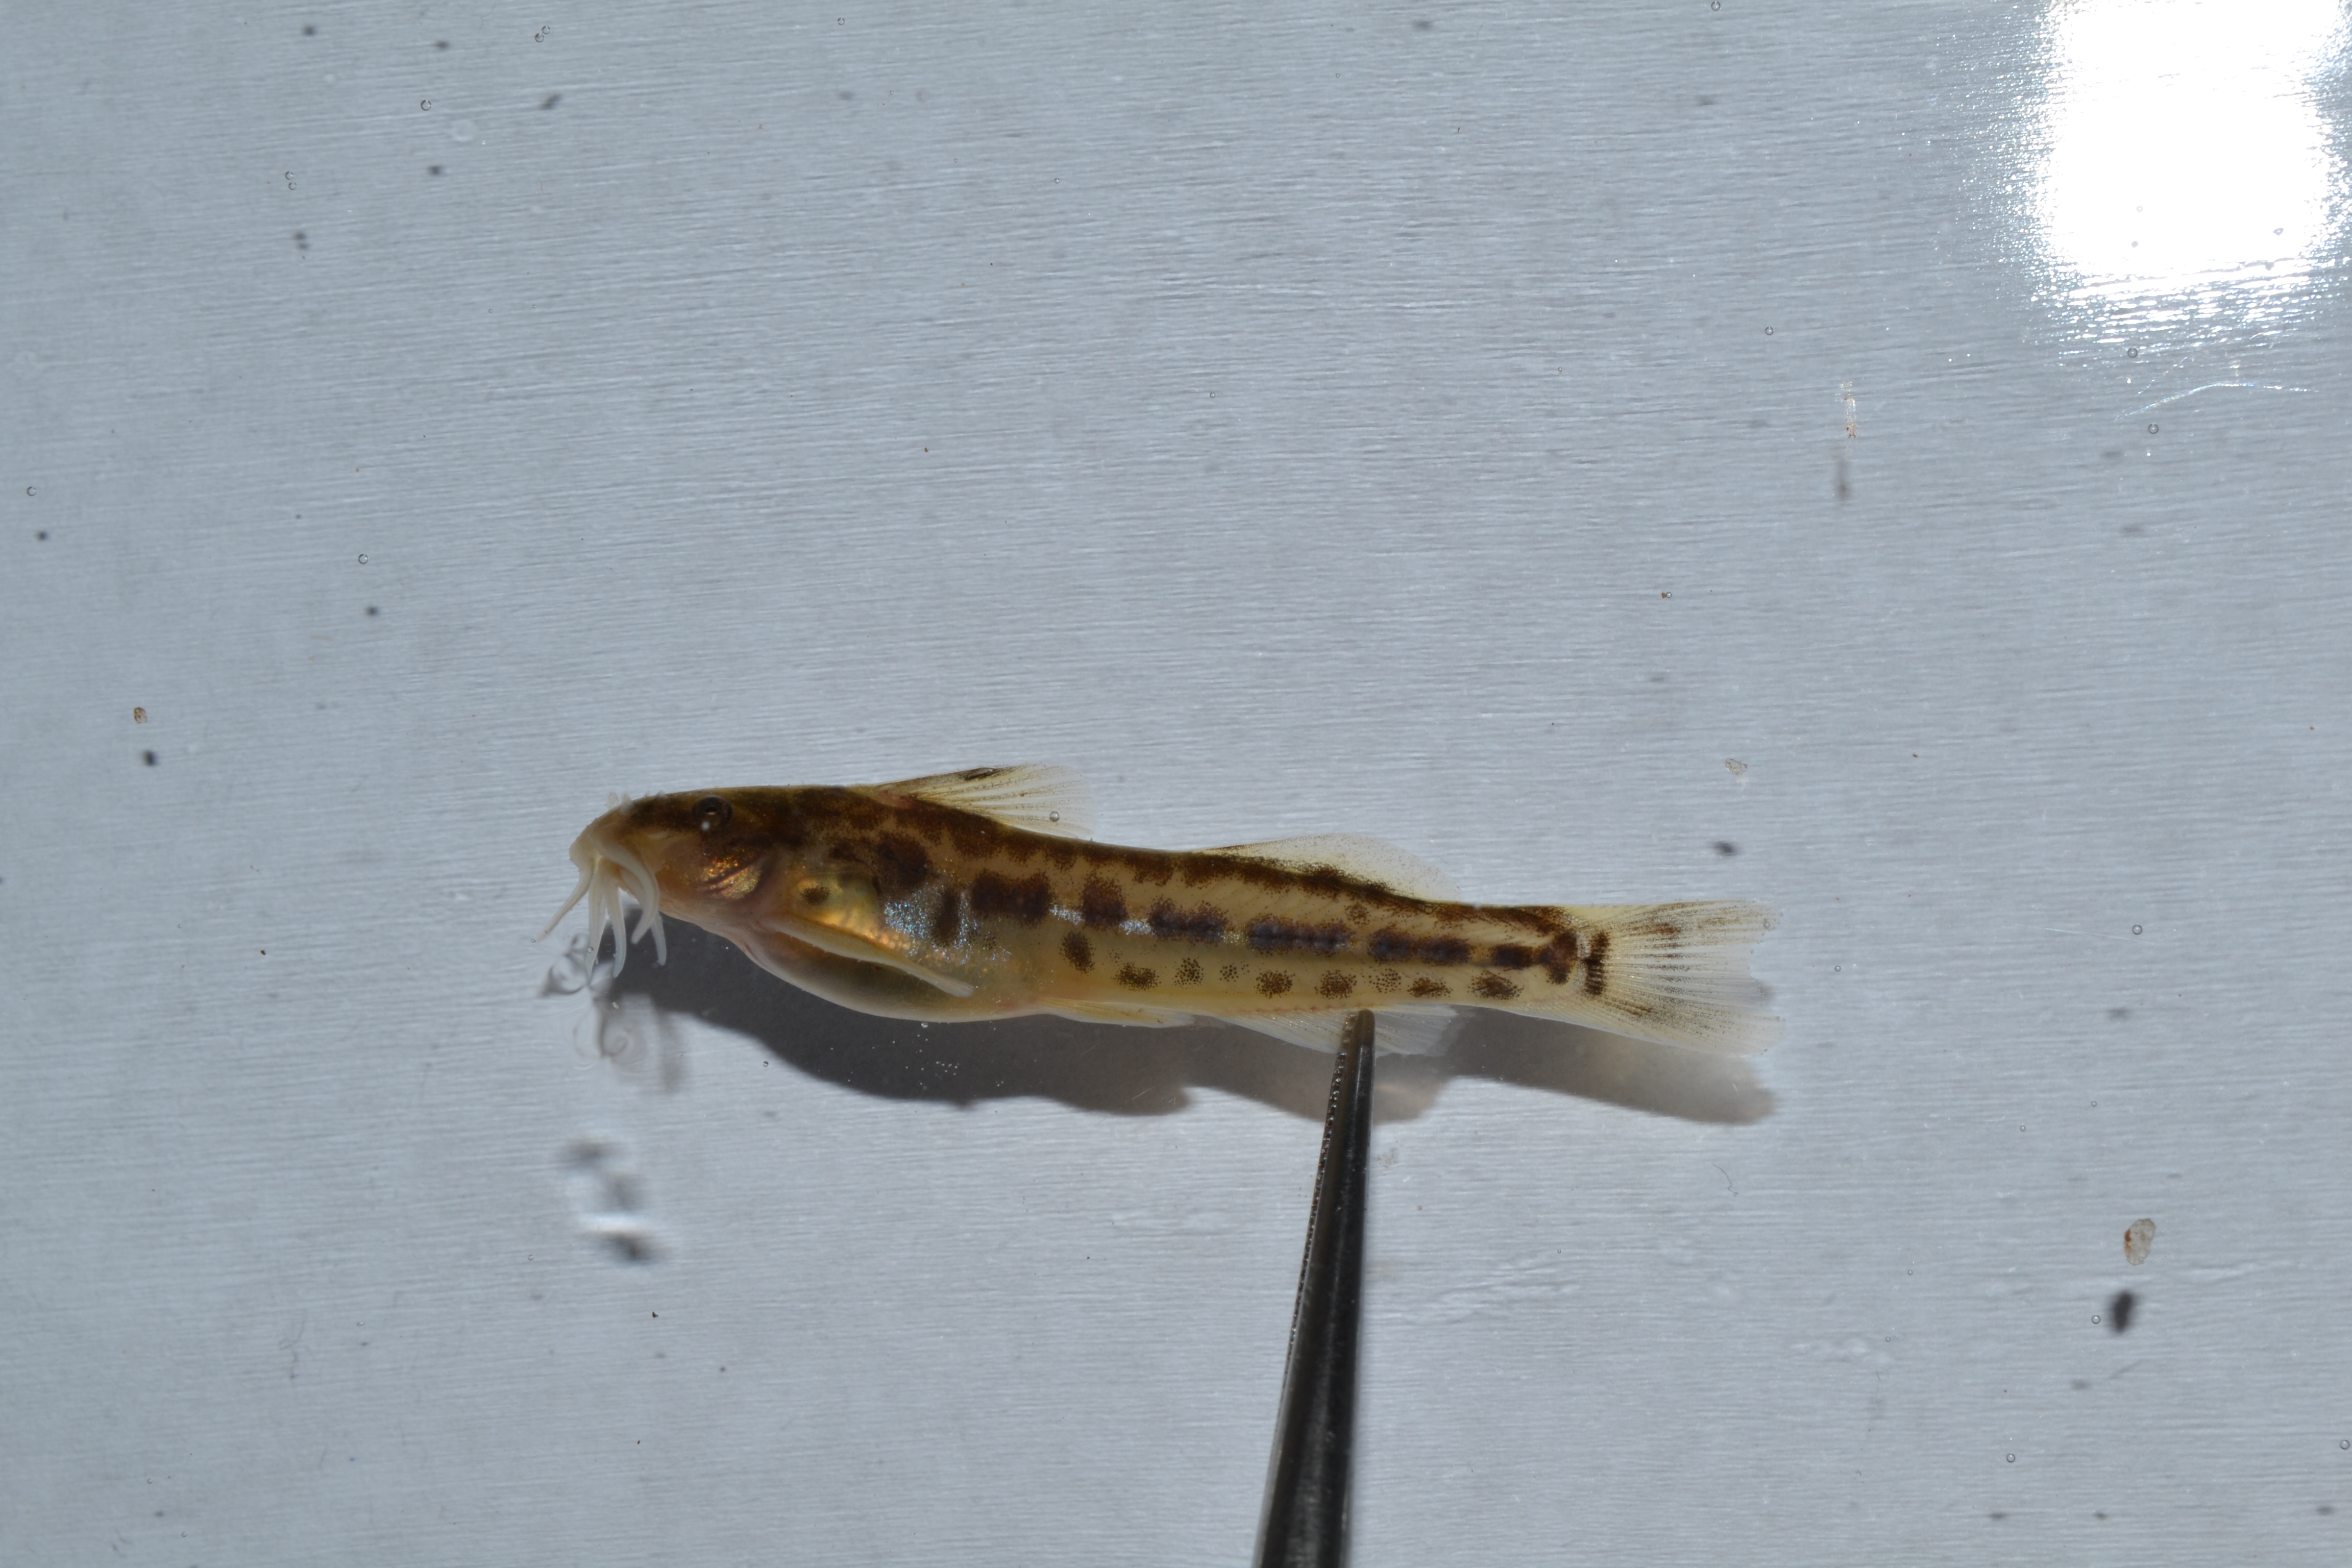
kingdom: Animalia
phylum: Chordata
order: Siluriformes
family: Amphiliidae
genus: Zaireichthys
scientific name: Zaireichthys
